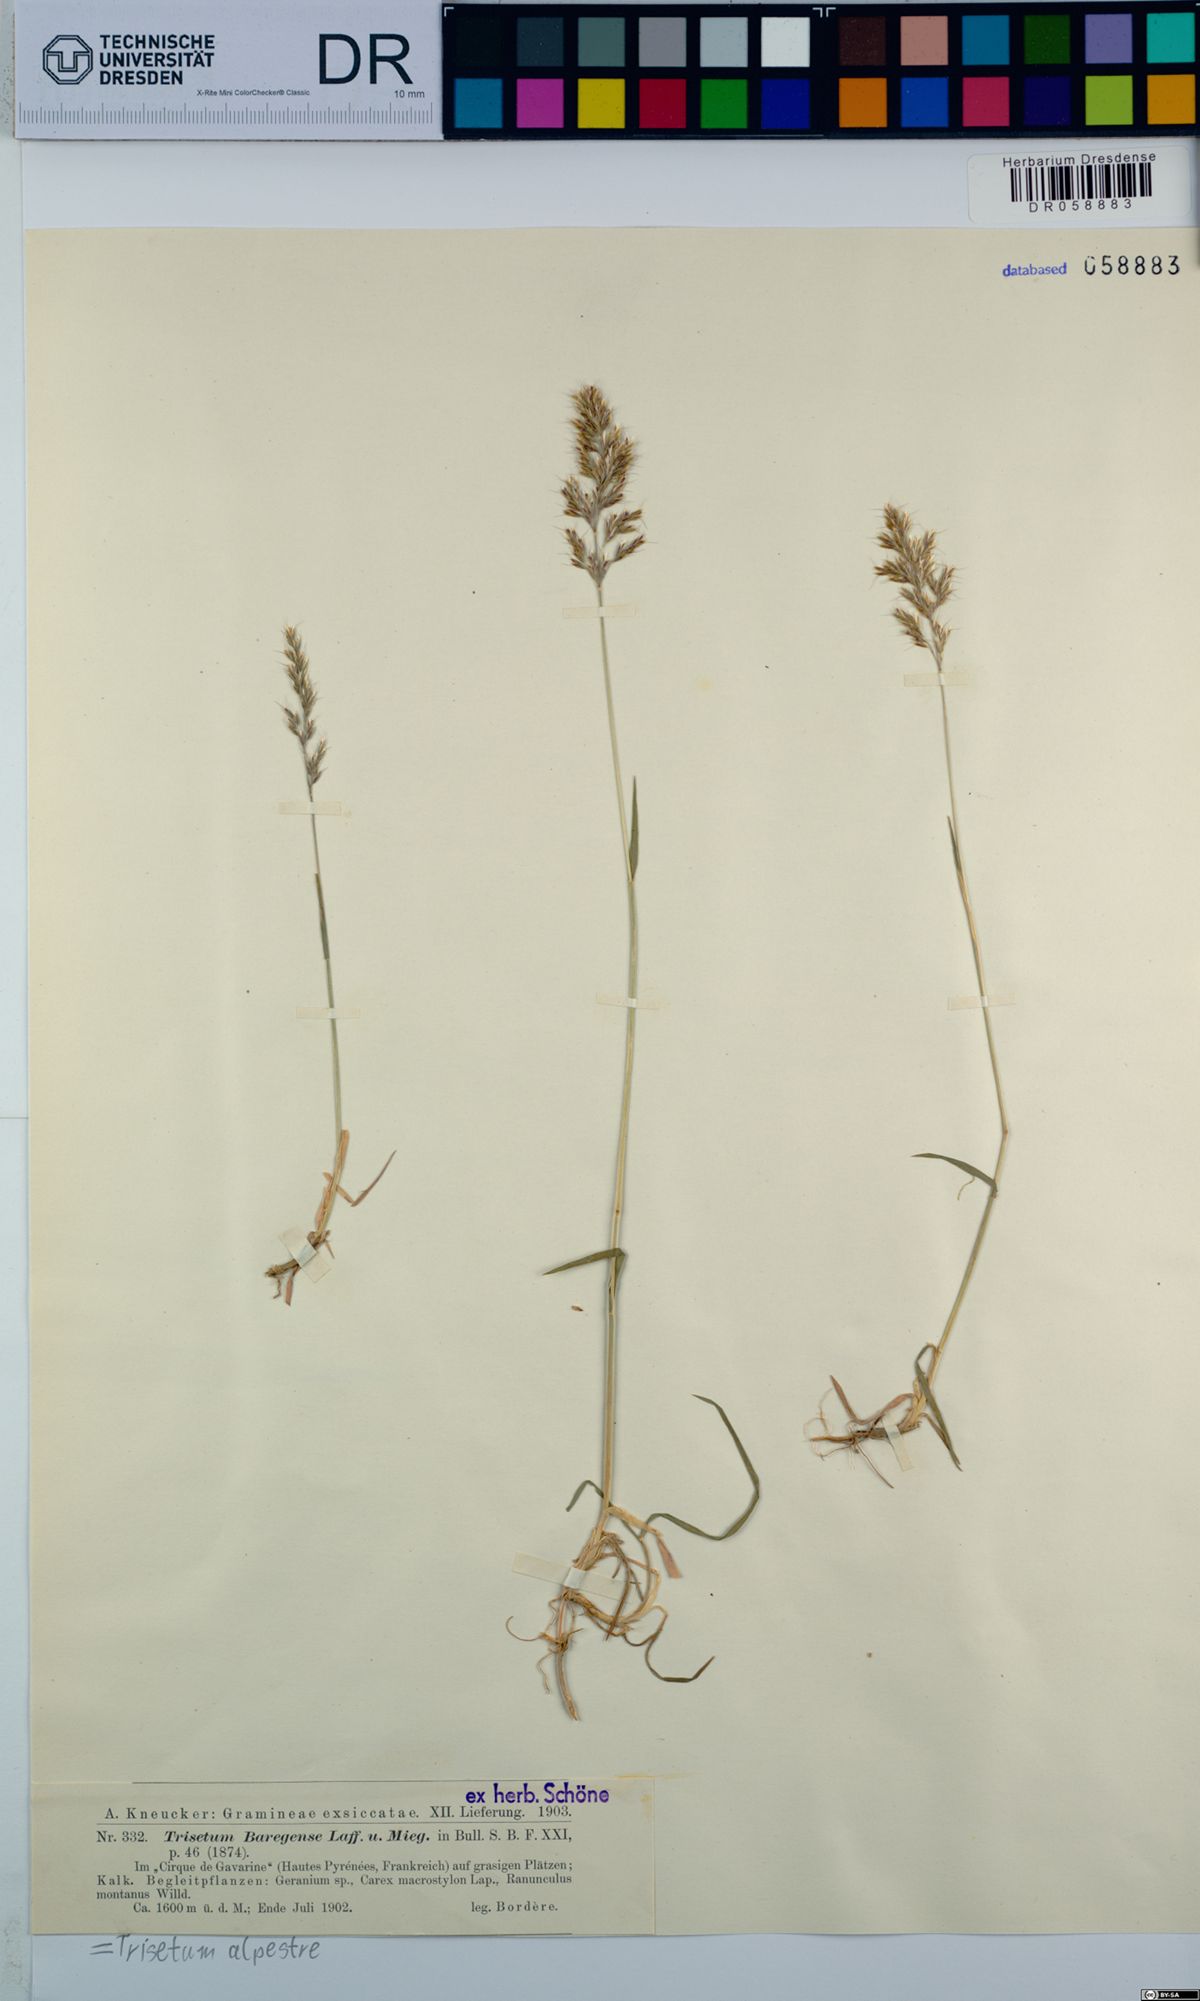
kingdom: Plantae
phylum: Tracheophyta
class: Liliopsida
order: Poales
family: Poaceae
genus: Trisetum
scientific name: Trisetum alpestre
